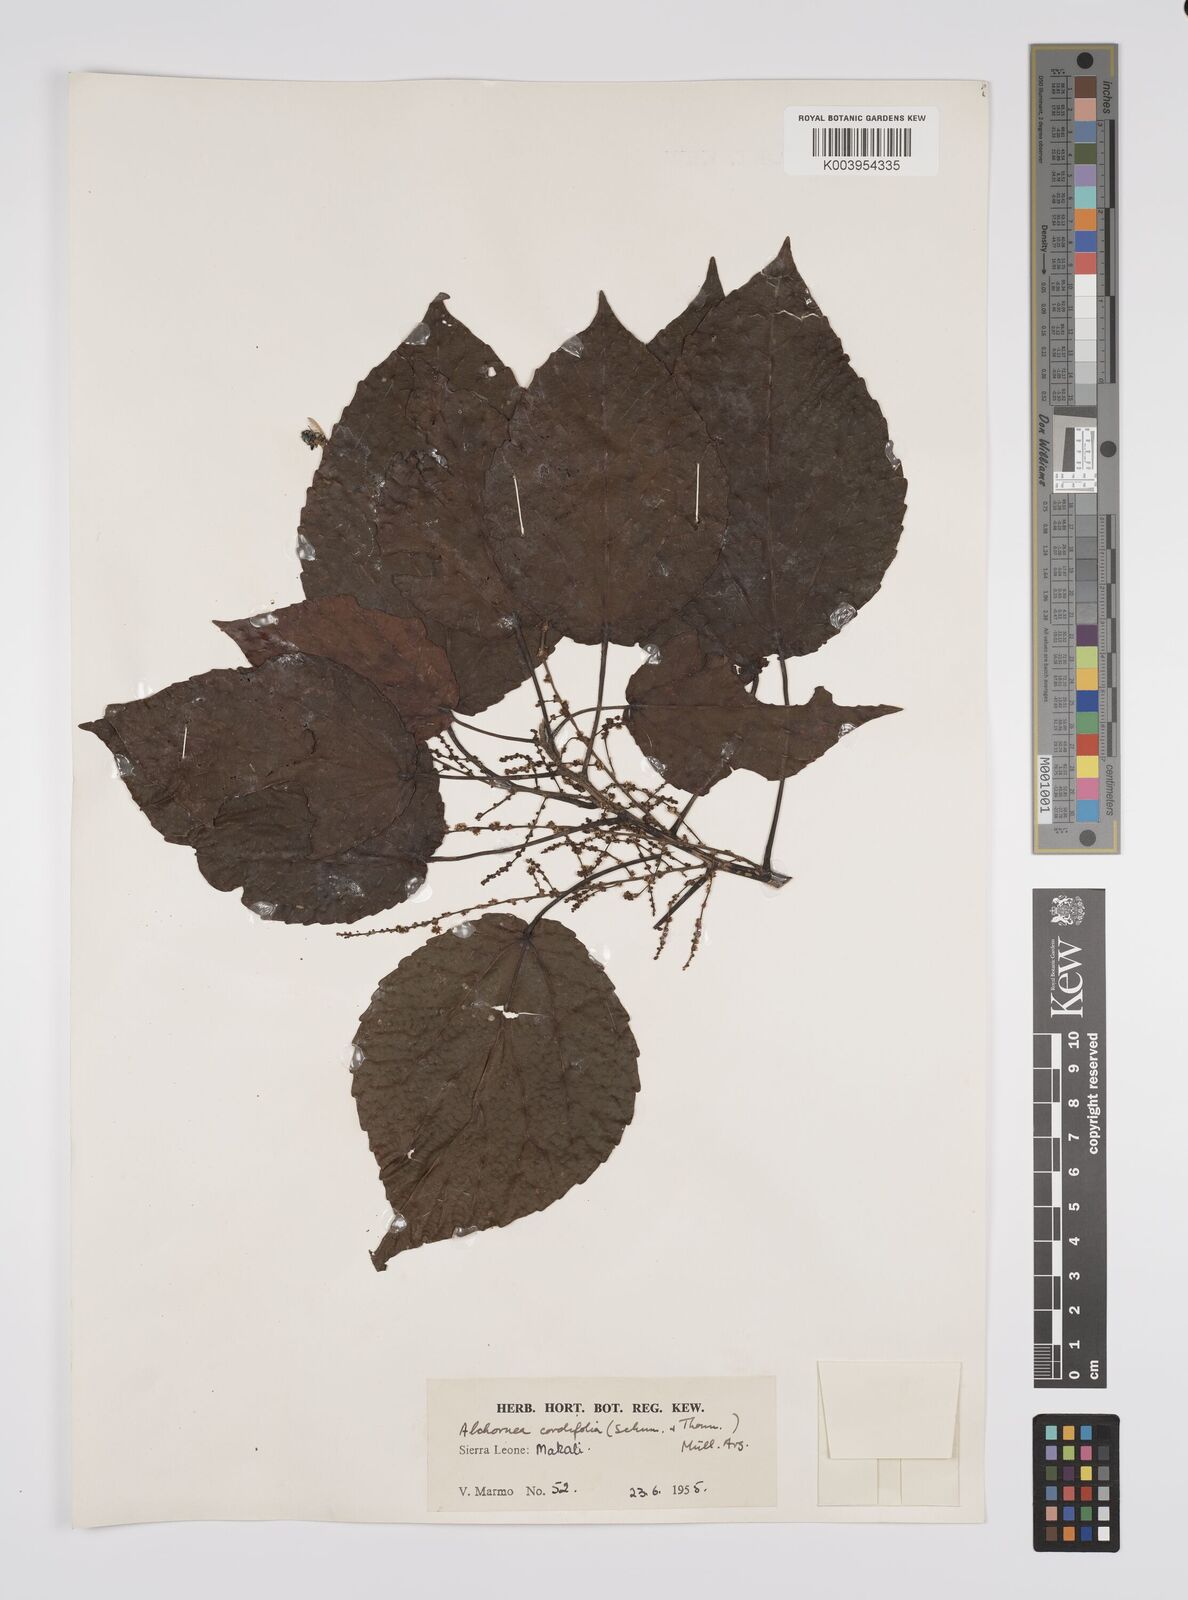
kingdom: Plantae
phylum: Tracheophyta
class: Magnoliopsida
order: Malpighiales
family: Euphorbiaceae
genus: Alchornea
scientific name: Alchornea cordifolia
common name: Christmasbush
